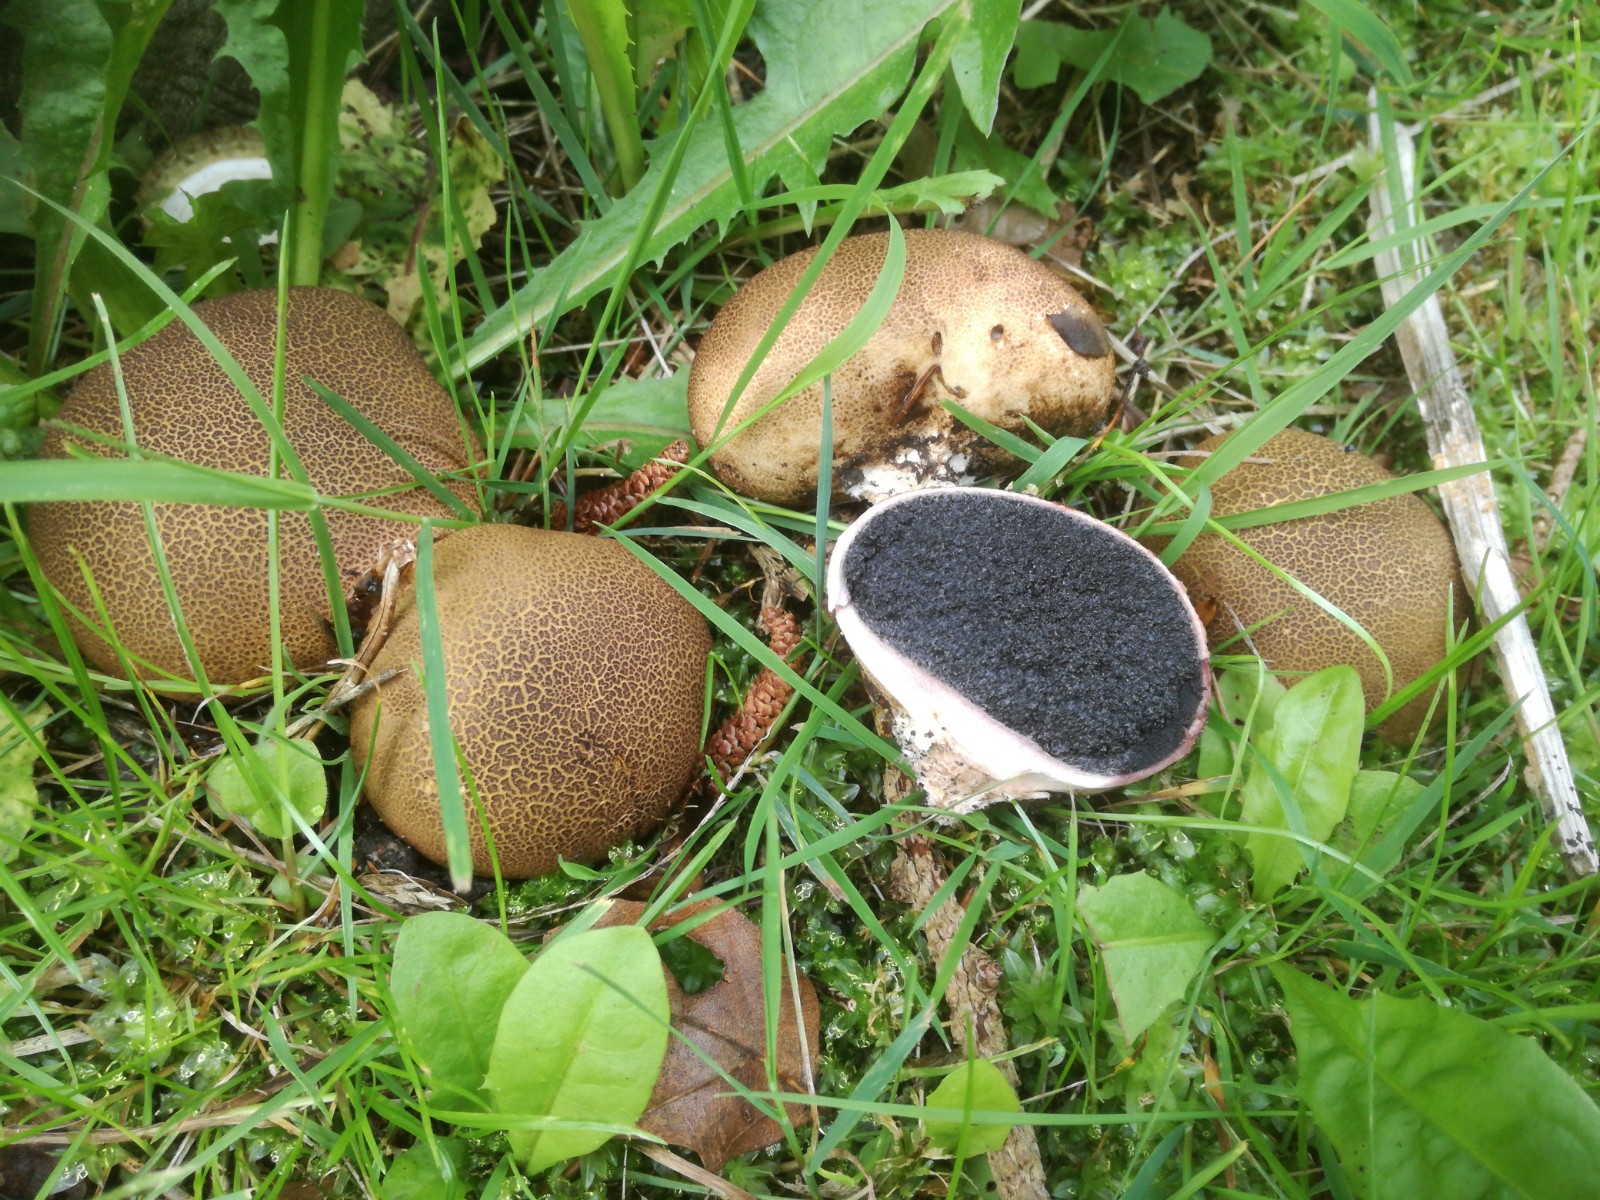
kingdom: Fungi
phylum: Basidiomycota
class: Agaricomycetes
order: Boletales
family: Sclerodermataceae
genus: Scleroderma
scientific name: Scleroderma cepa
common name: rødbrun bruskbold
